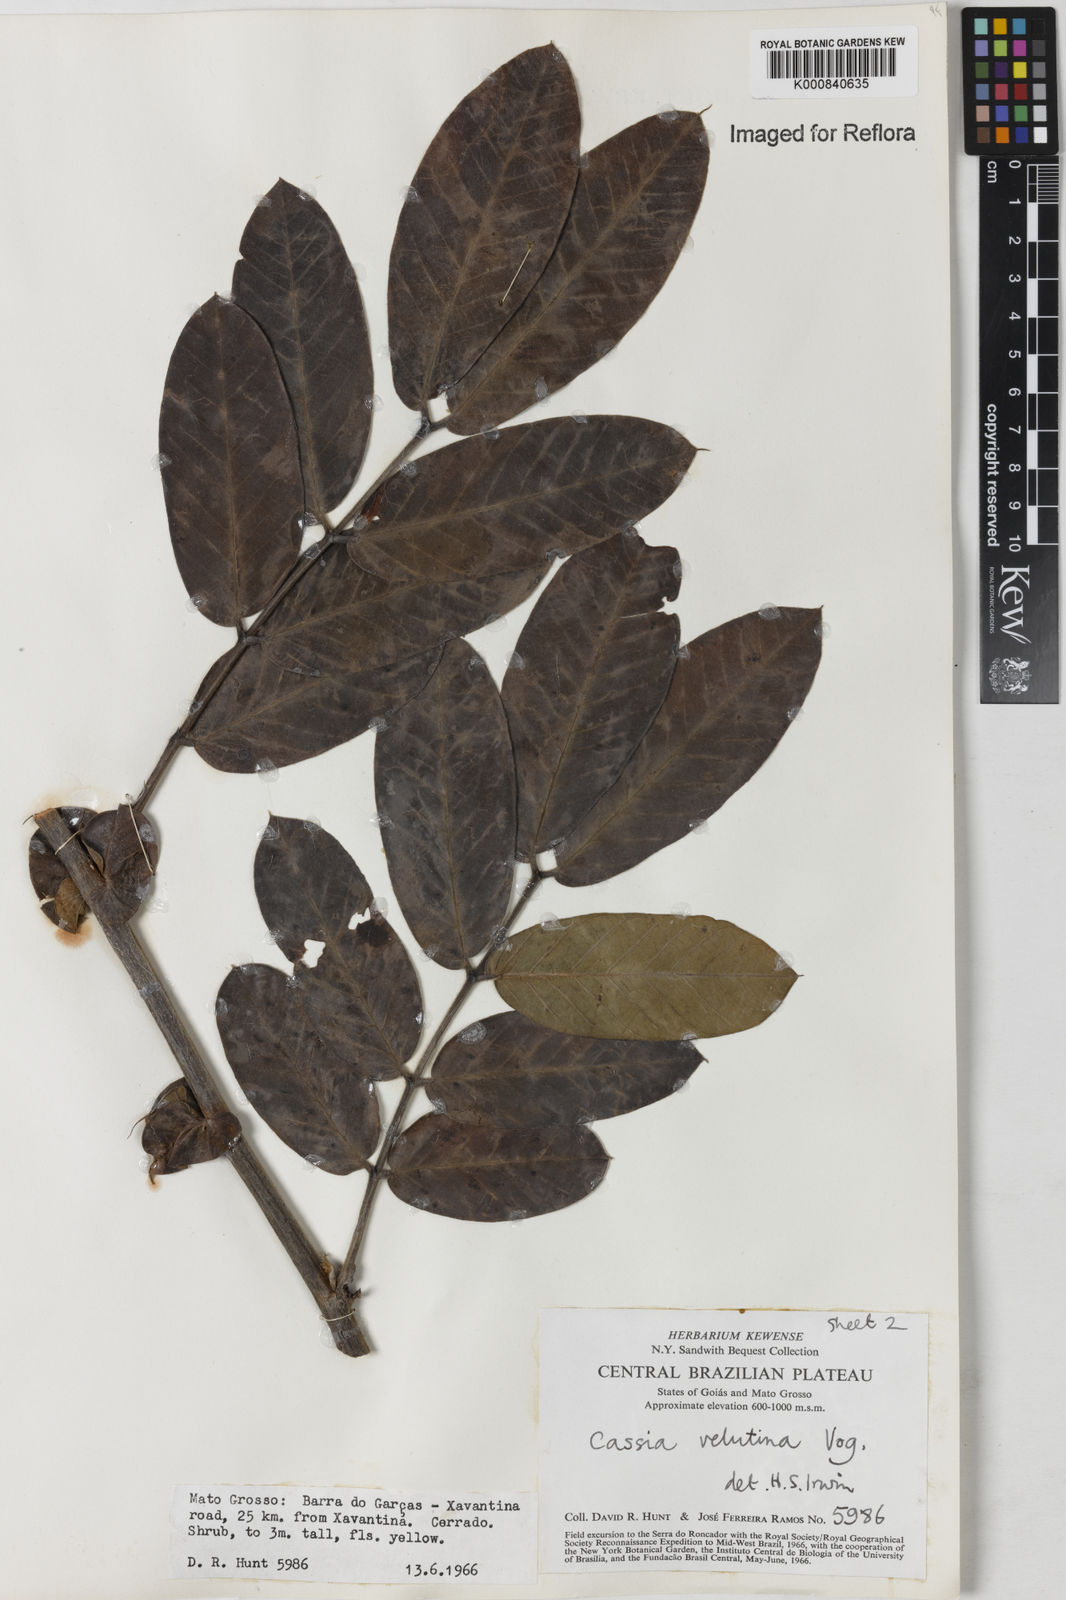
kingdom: Plantae
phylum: Tracheophyta
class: Magnoliopsida
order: Fabales
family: Fabaceae
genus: Senna
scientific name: Senna velutina
